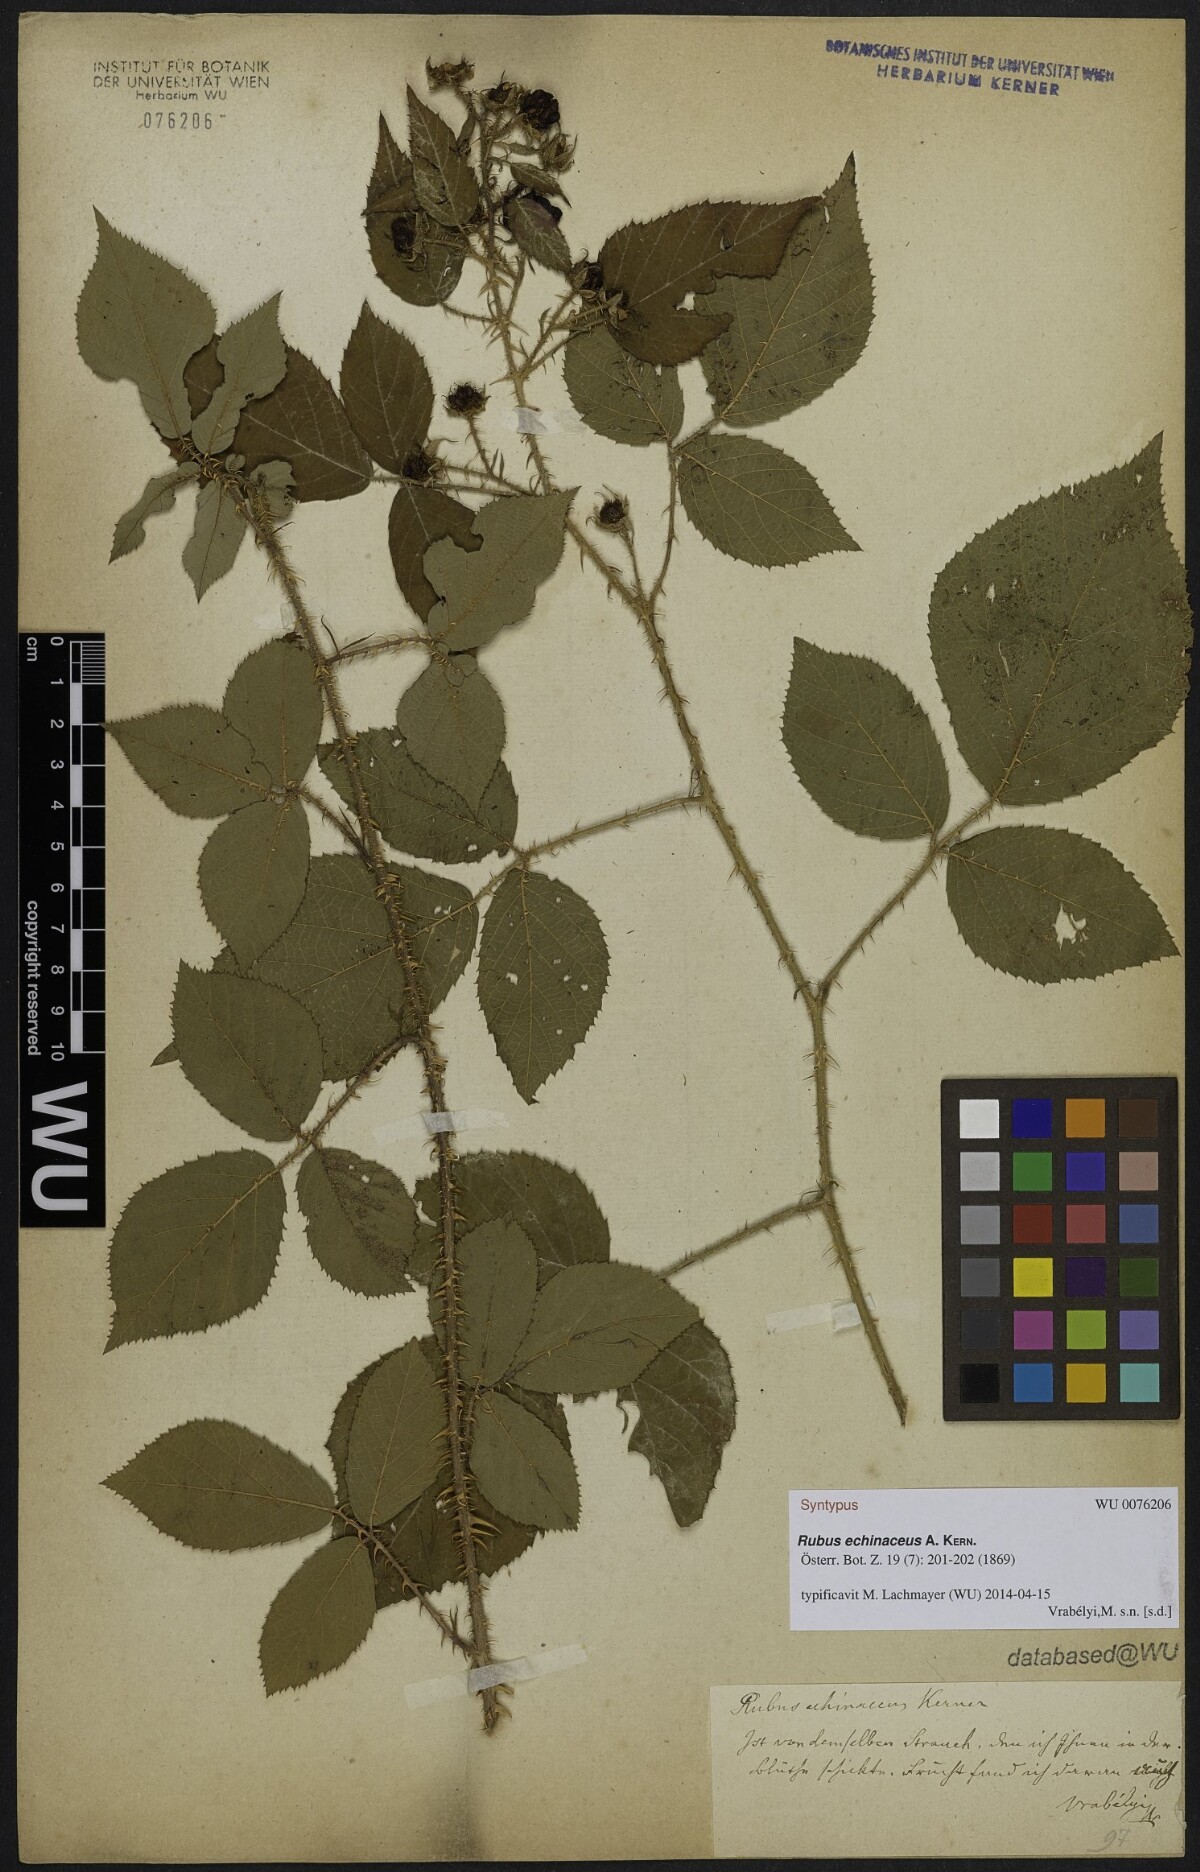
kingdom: Plantae
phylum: Tracheophyta
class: Magnoliopsida
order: Rosales
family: Rosaceae
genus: Rubus
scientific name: Rubus echinaceus
